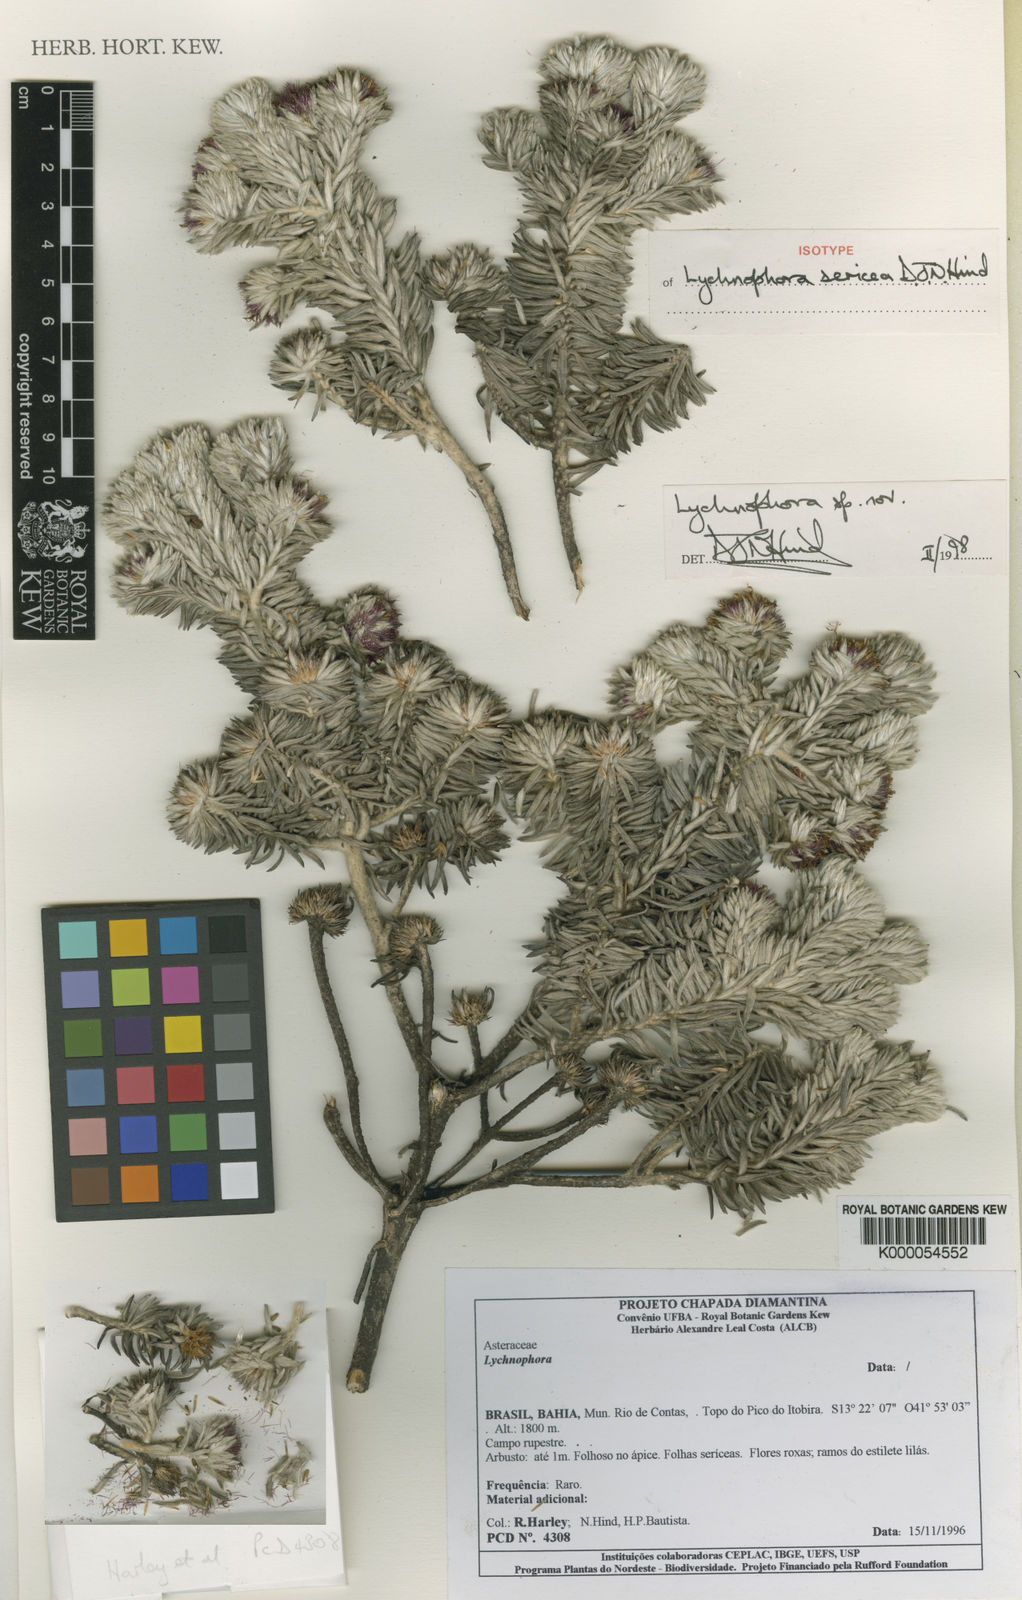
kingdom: Plantae
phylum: Tracheophyta
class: Magnoliopsida
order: Asterales
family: Asteraceae
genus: Lychnophorella
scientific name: Lychnophorella sericea
